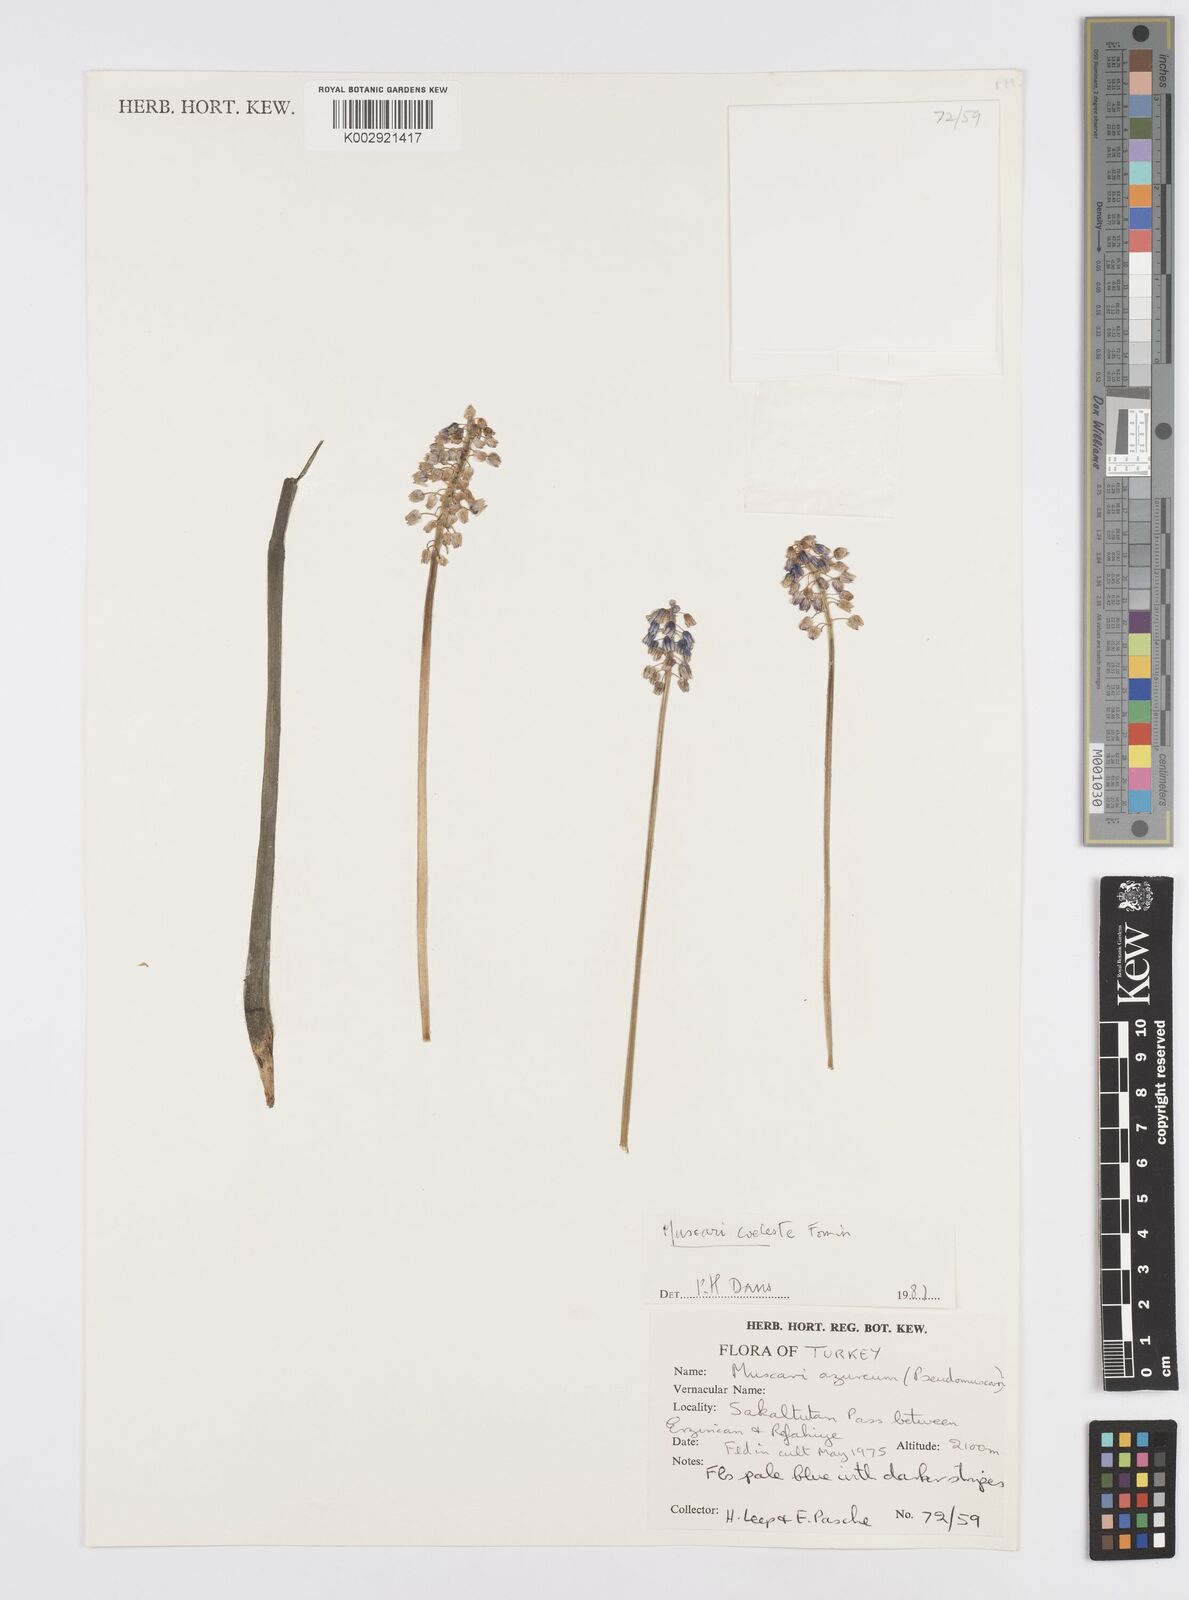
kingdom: Plantae
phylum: Tracheophyta
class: Liliopsida
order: Asparagales
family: Asparagaceae
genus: Muscari
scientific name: Muscari
